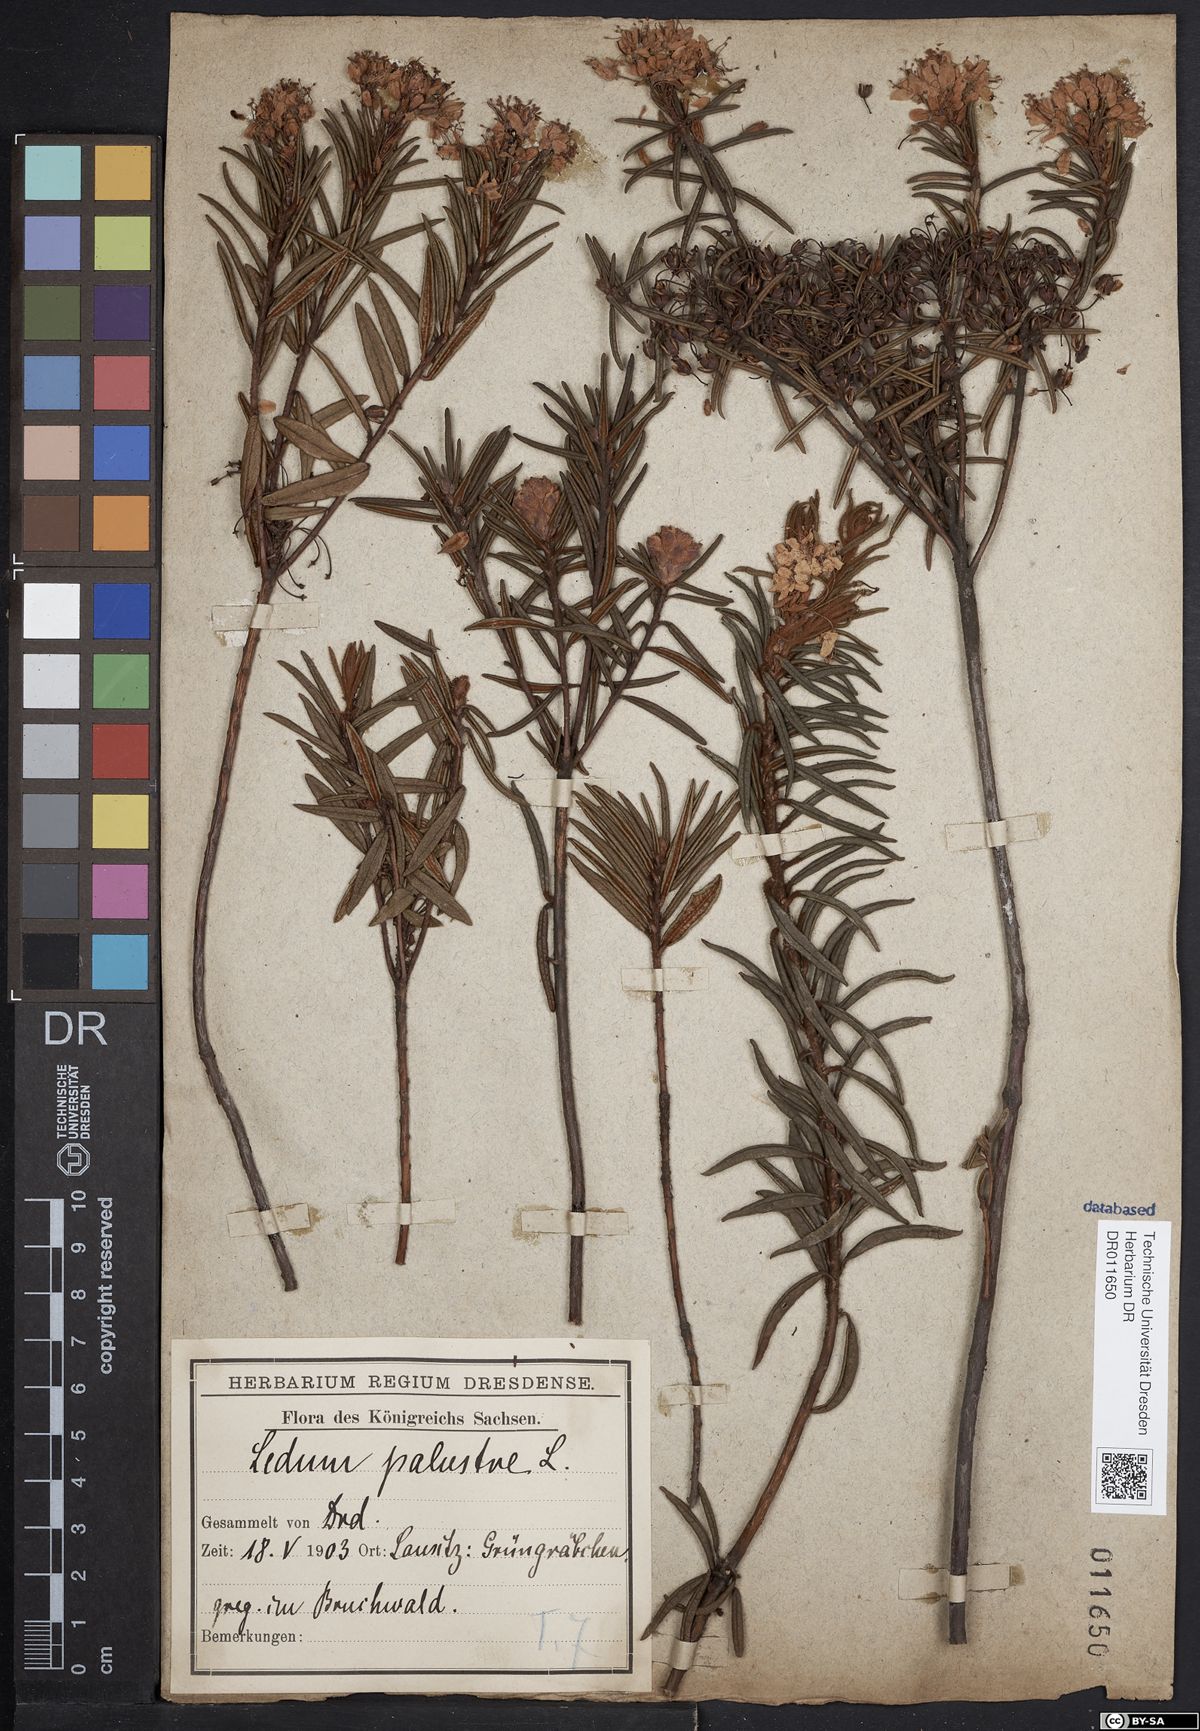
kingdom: Plantae
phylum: Tracheophyta
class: Magnoliopsida
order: Ericales
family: Ericaceae
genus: Rhododendron
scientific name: Rhododendron tomentosum
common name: Marsh labrador tea
